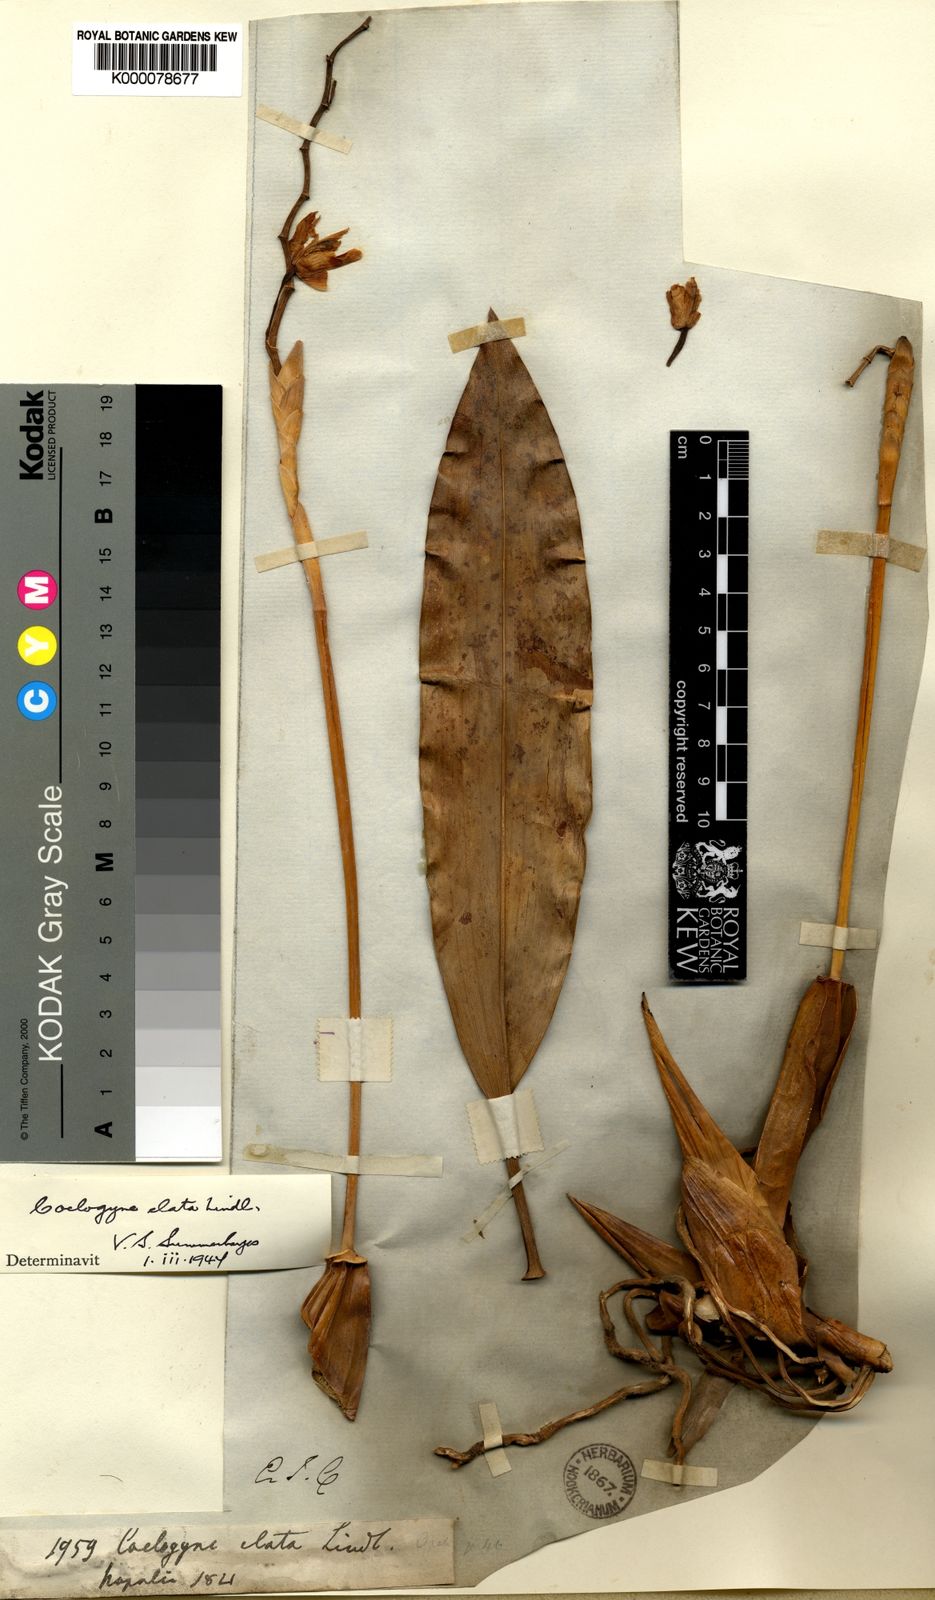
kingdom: Plantae
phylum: Tracheophyta
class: Liliopsida
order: Asparagales
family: Orchidaceae
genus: Coelogyne
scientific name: Coelogyne stricta
